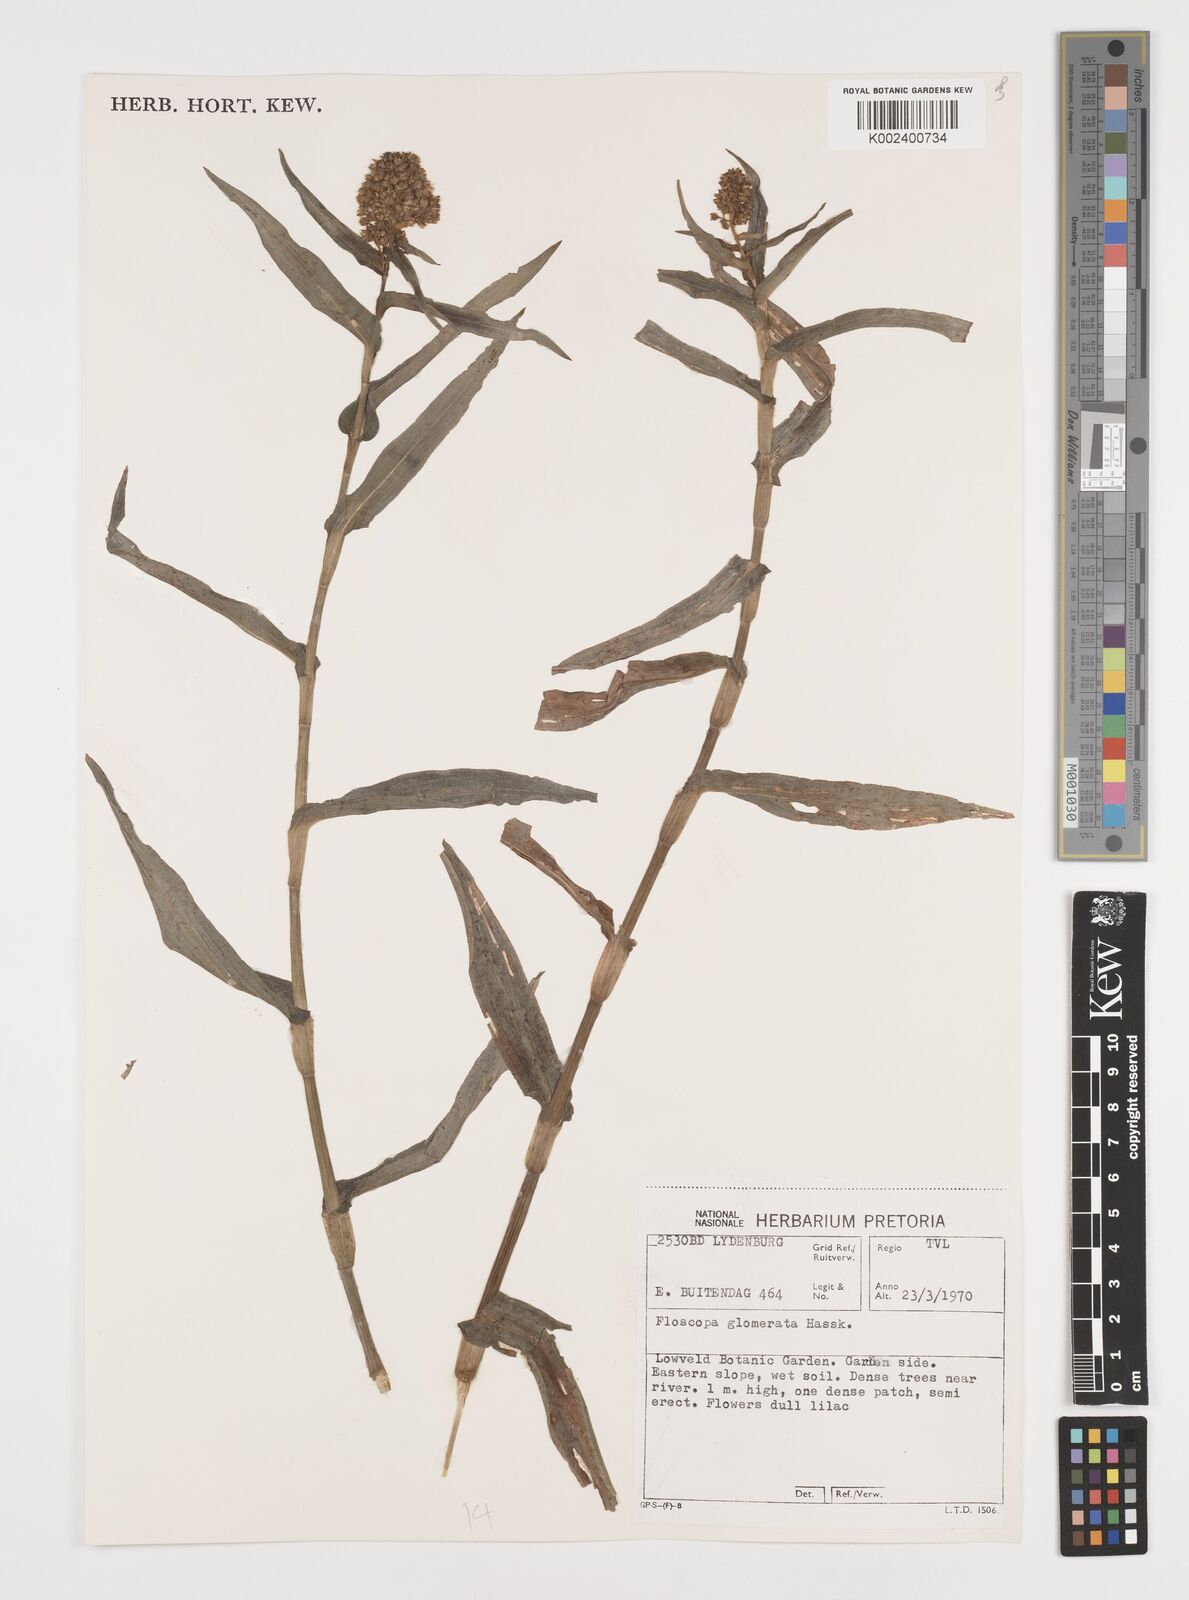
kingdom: Plantae
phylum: Tracheophyta
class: Liliopsida
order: Commelinales
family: Commelinaceae
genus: Floscopa
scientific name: Floscopa glomerata
